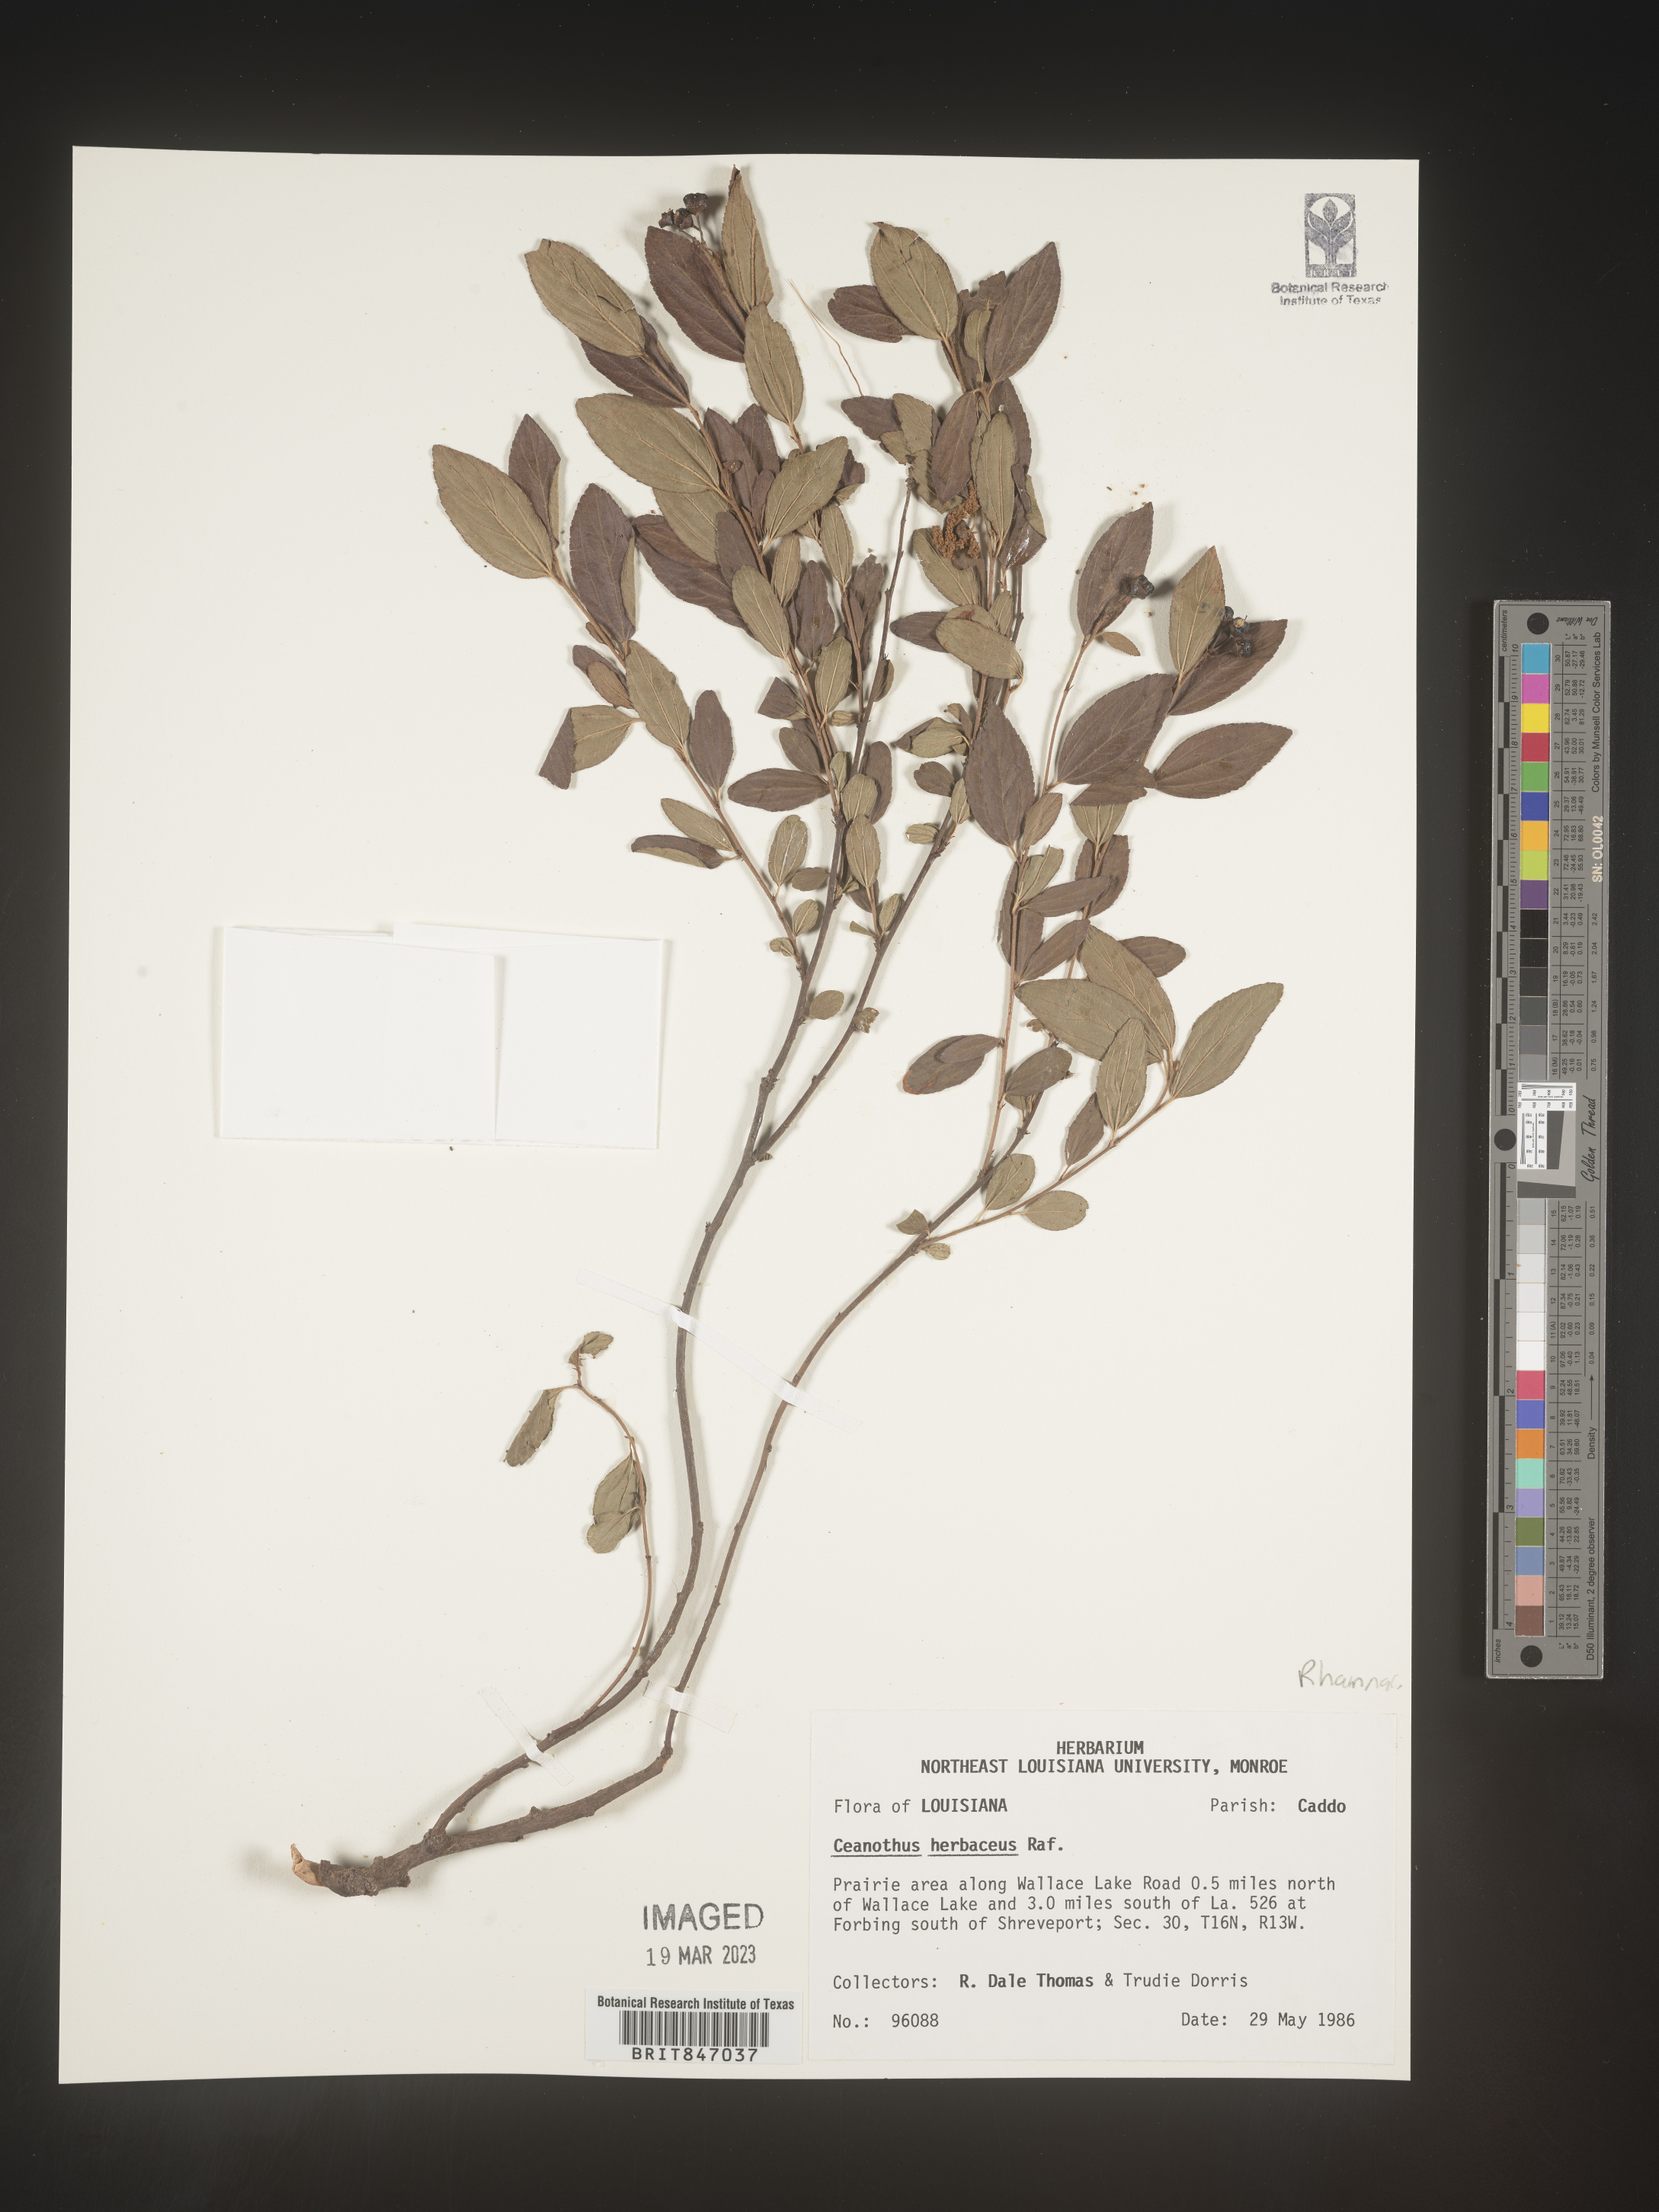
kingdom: Plantae
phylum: Tracheophyta
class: Magnoliopsida
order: Rosales
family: Rhamnaceae
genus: Ceanothus
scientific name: Ceanothus herbaceus
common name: Inland ceanothus
